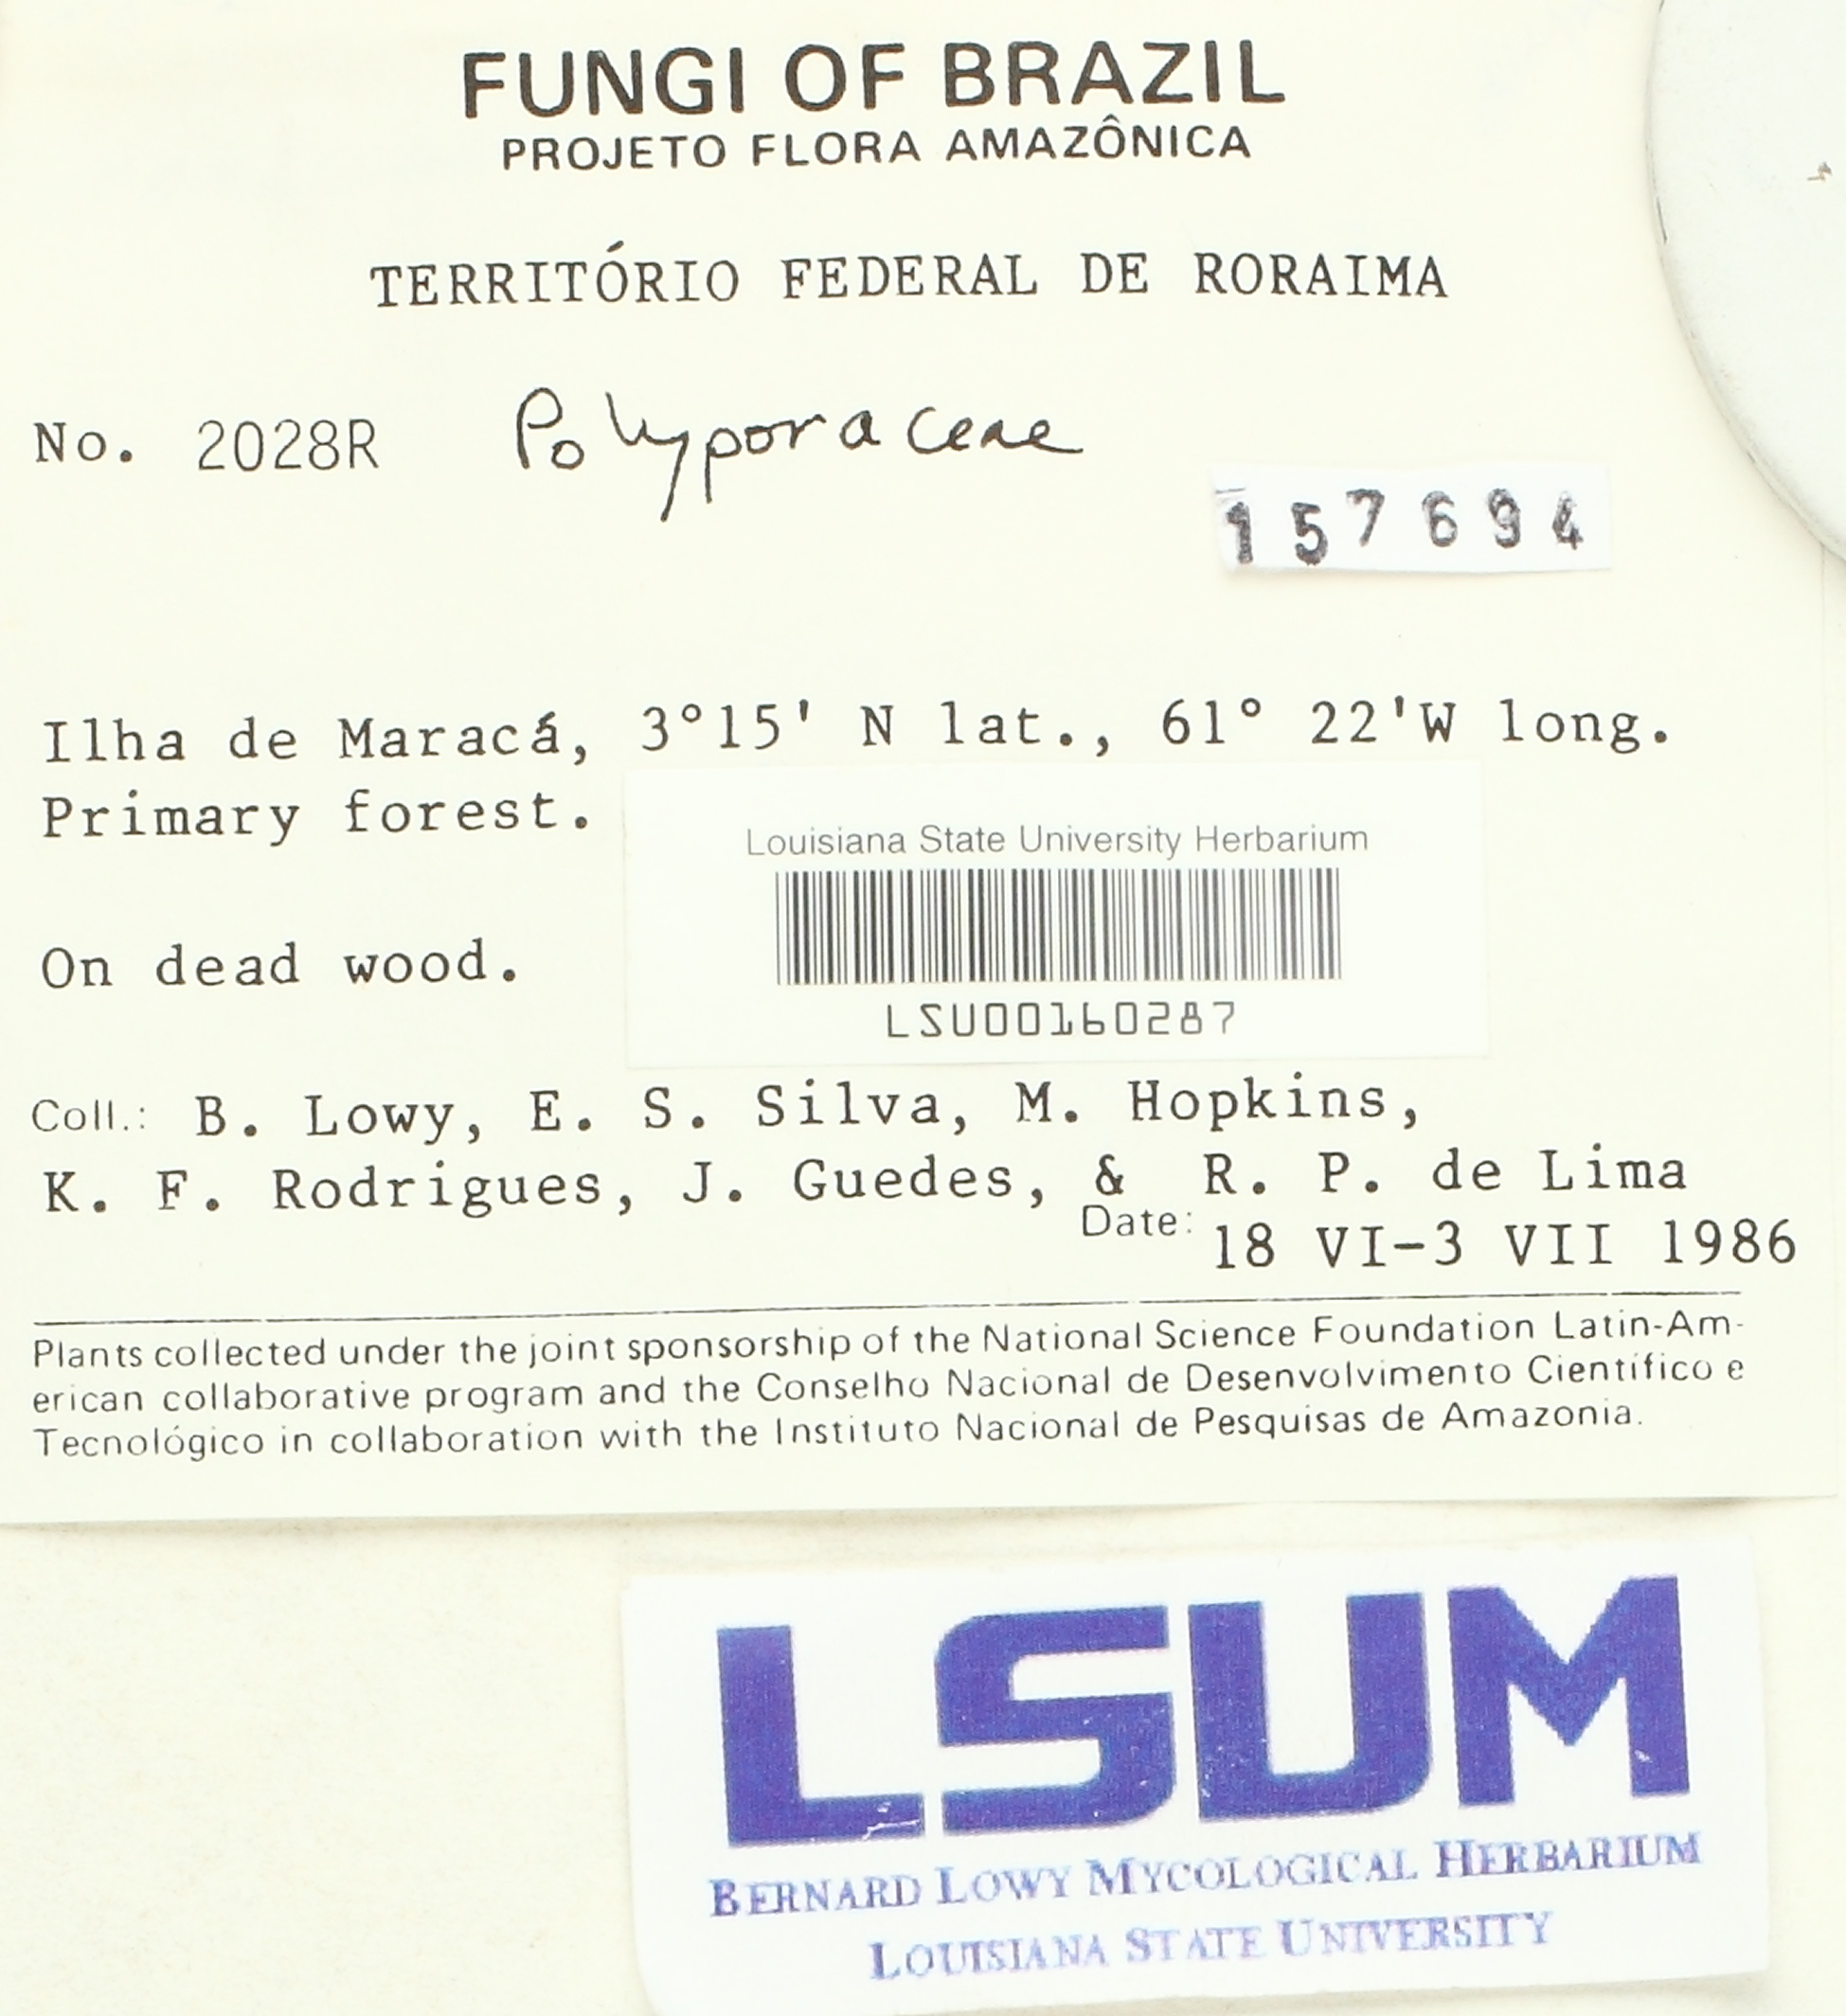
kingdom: Fungi
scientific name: Fungi
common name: Fungi
